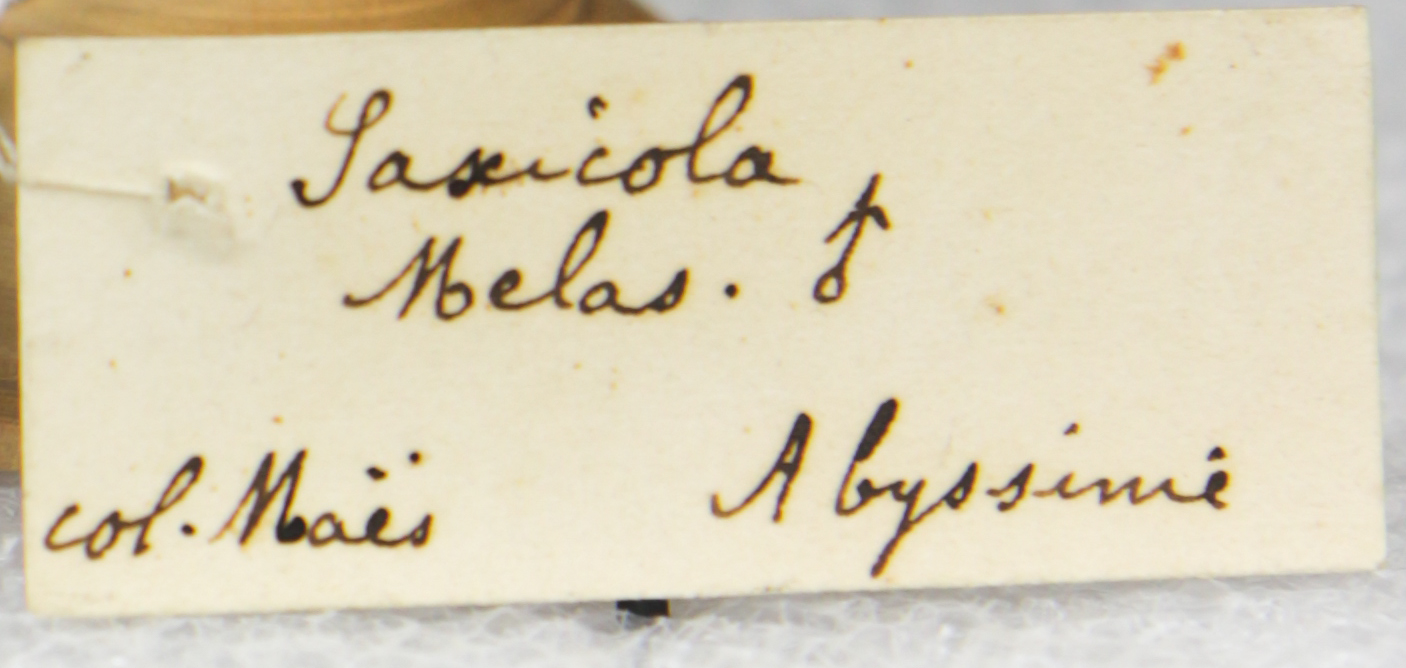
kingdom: Animalia
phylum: Chordata
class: Aves
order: Passeriformes
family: Muscicapidae
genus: Myrmecocichla
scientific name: Myrmecocichla melaena
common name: Rüppell's black chat
